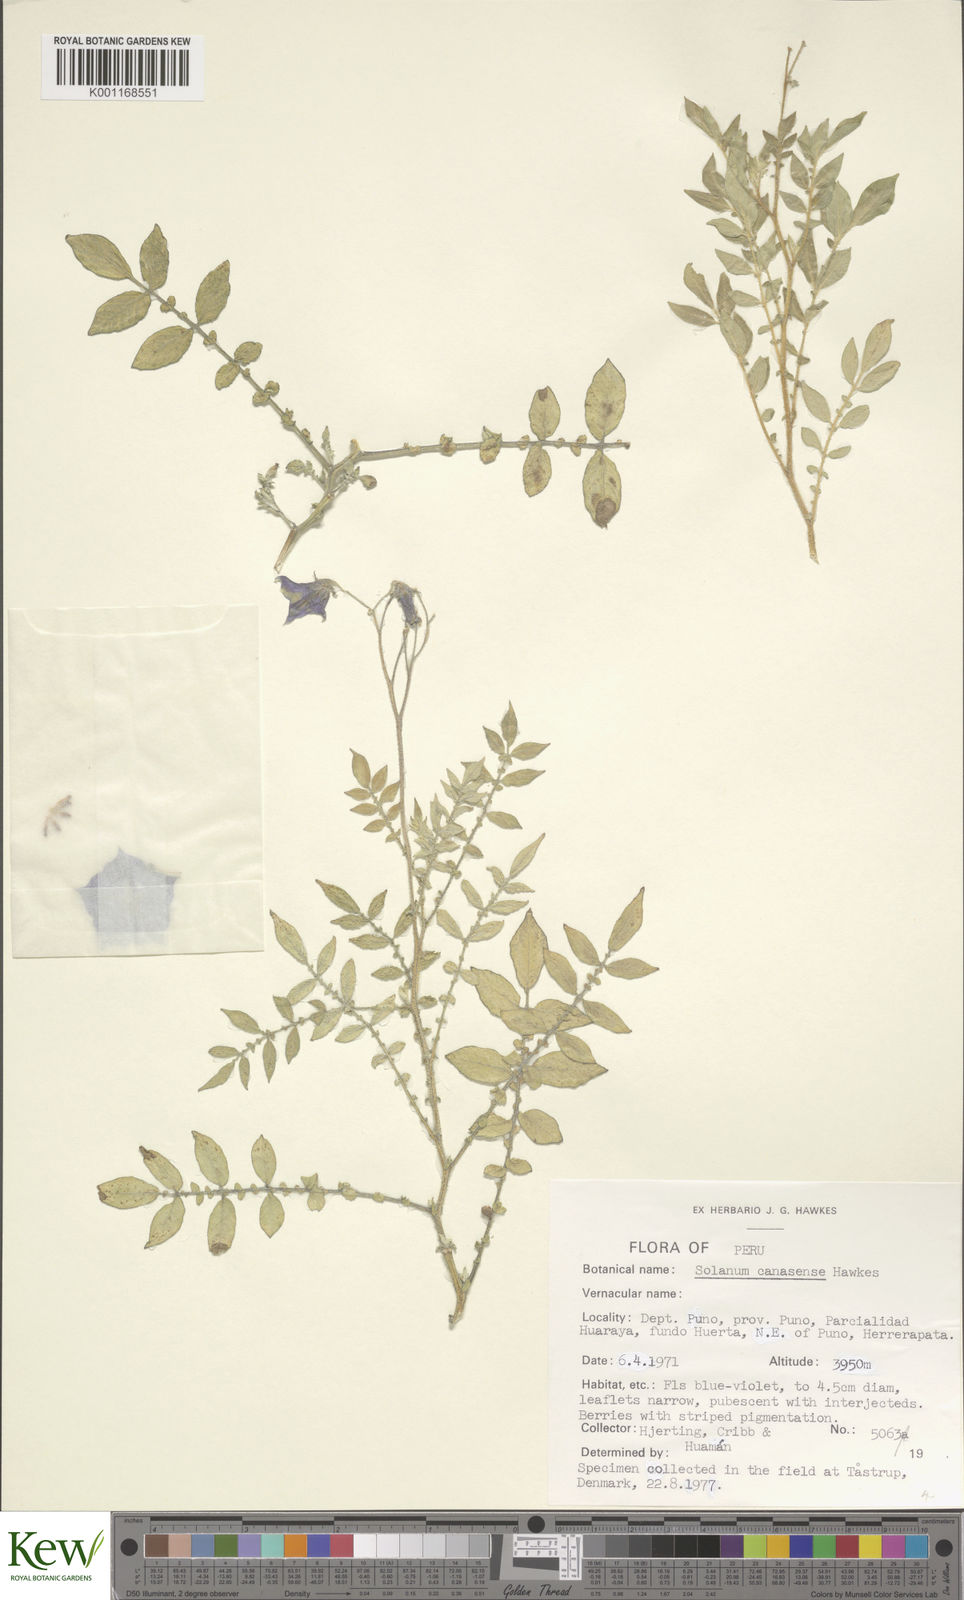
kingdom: Plantae
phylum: Tracheophyta
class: Magnoliopsida
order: Solanales
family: Solanaceae
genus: Solanum
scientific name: Solanum candolleanum
